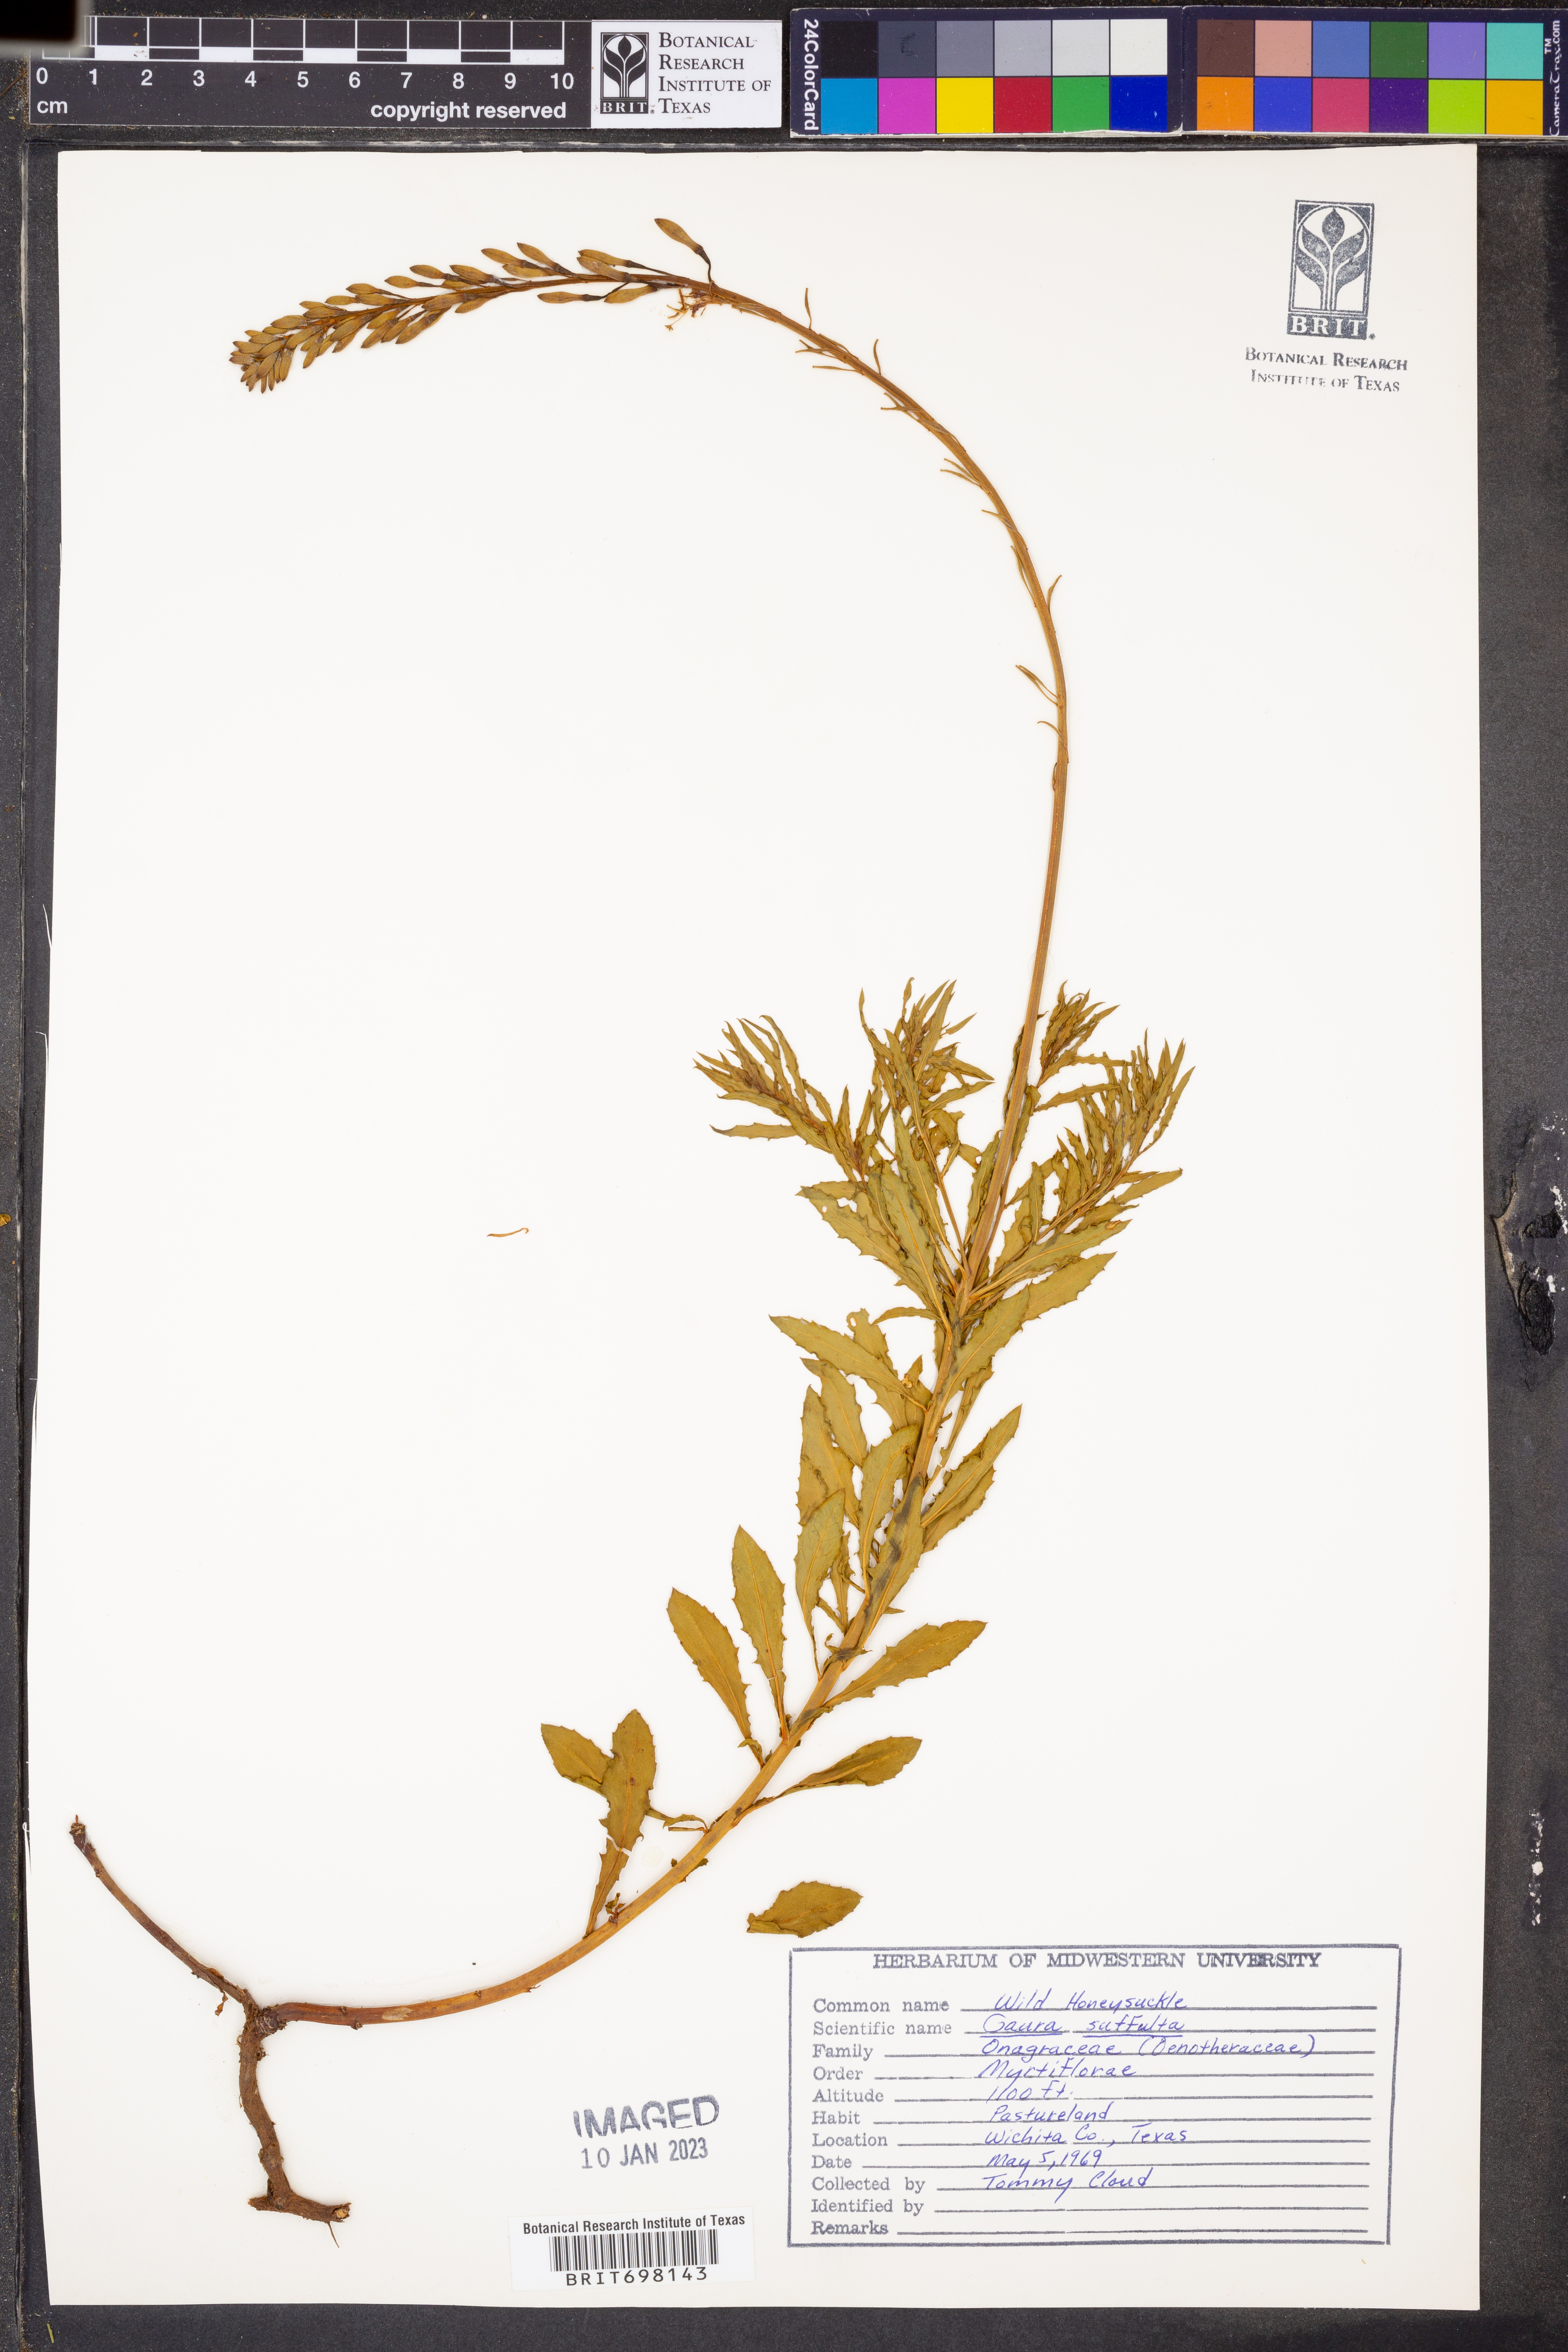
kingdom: Plantae
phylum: Tracheophyta
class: Magnoliopsida
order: Myrtales
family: Onagraceae
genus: Oenothera
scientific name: Oenothera Gaura suffulta
